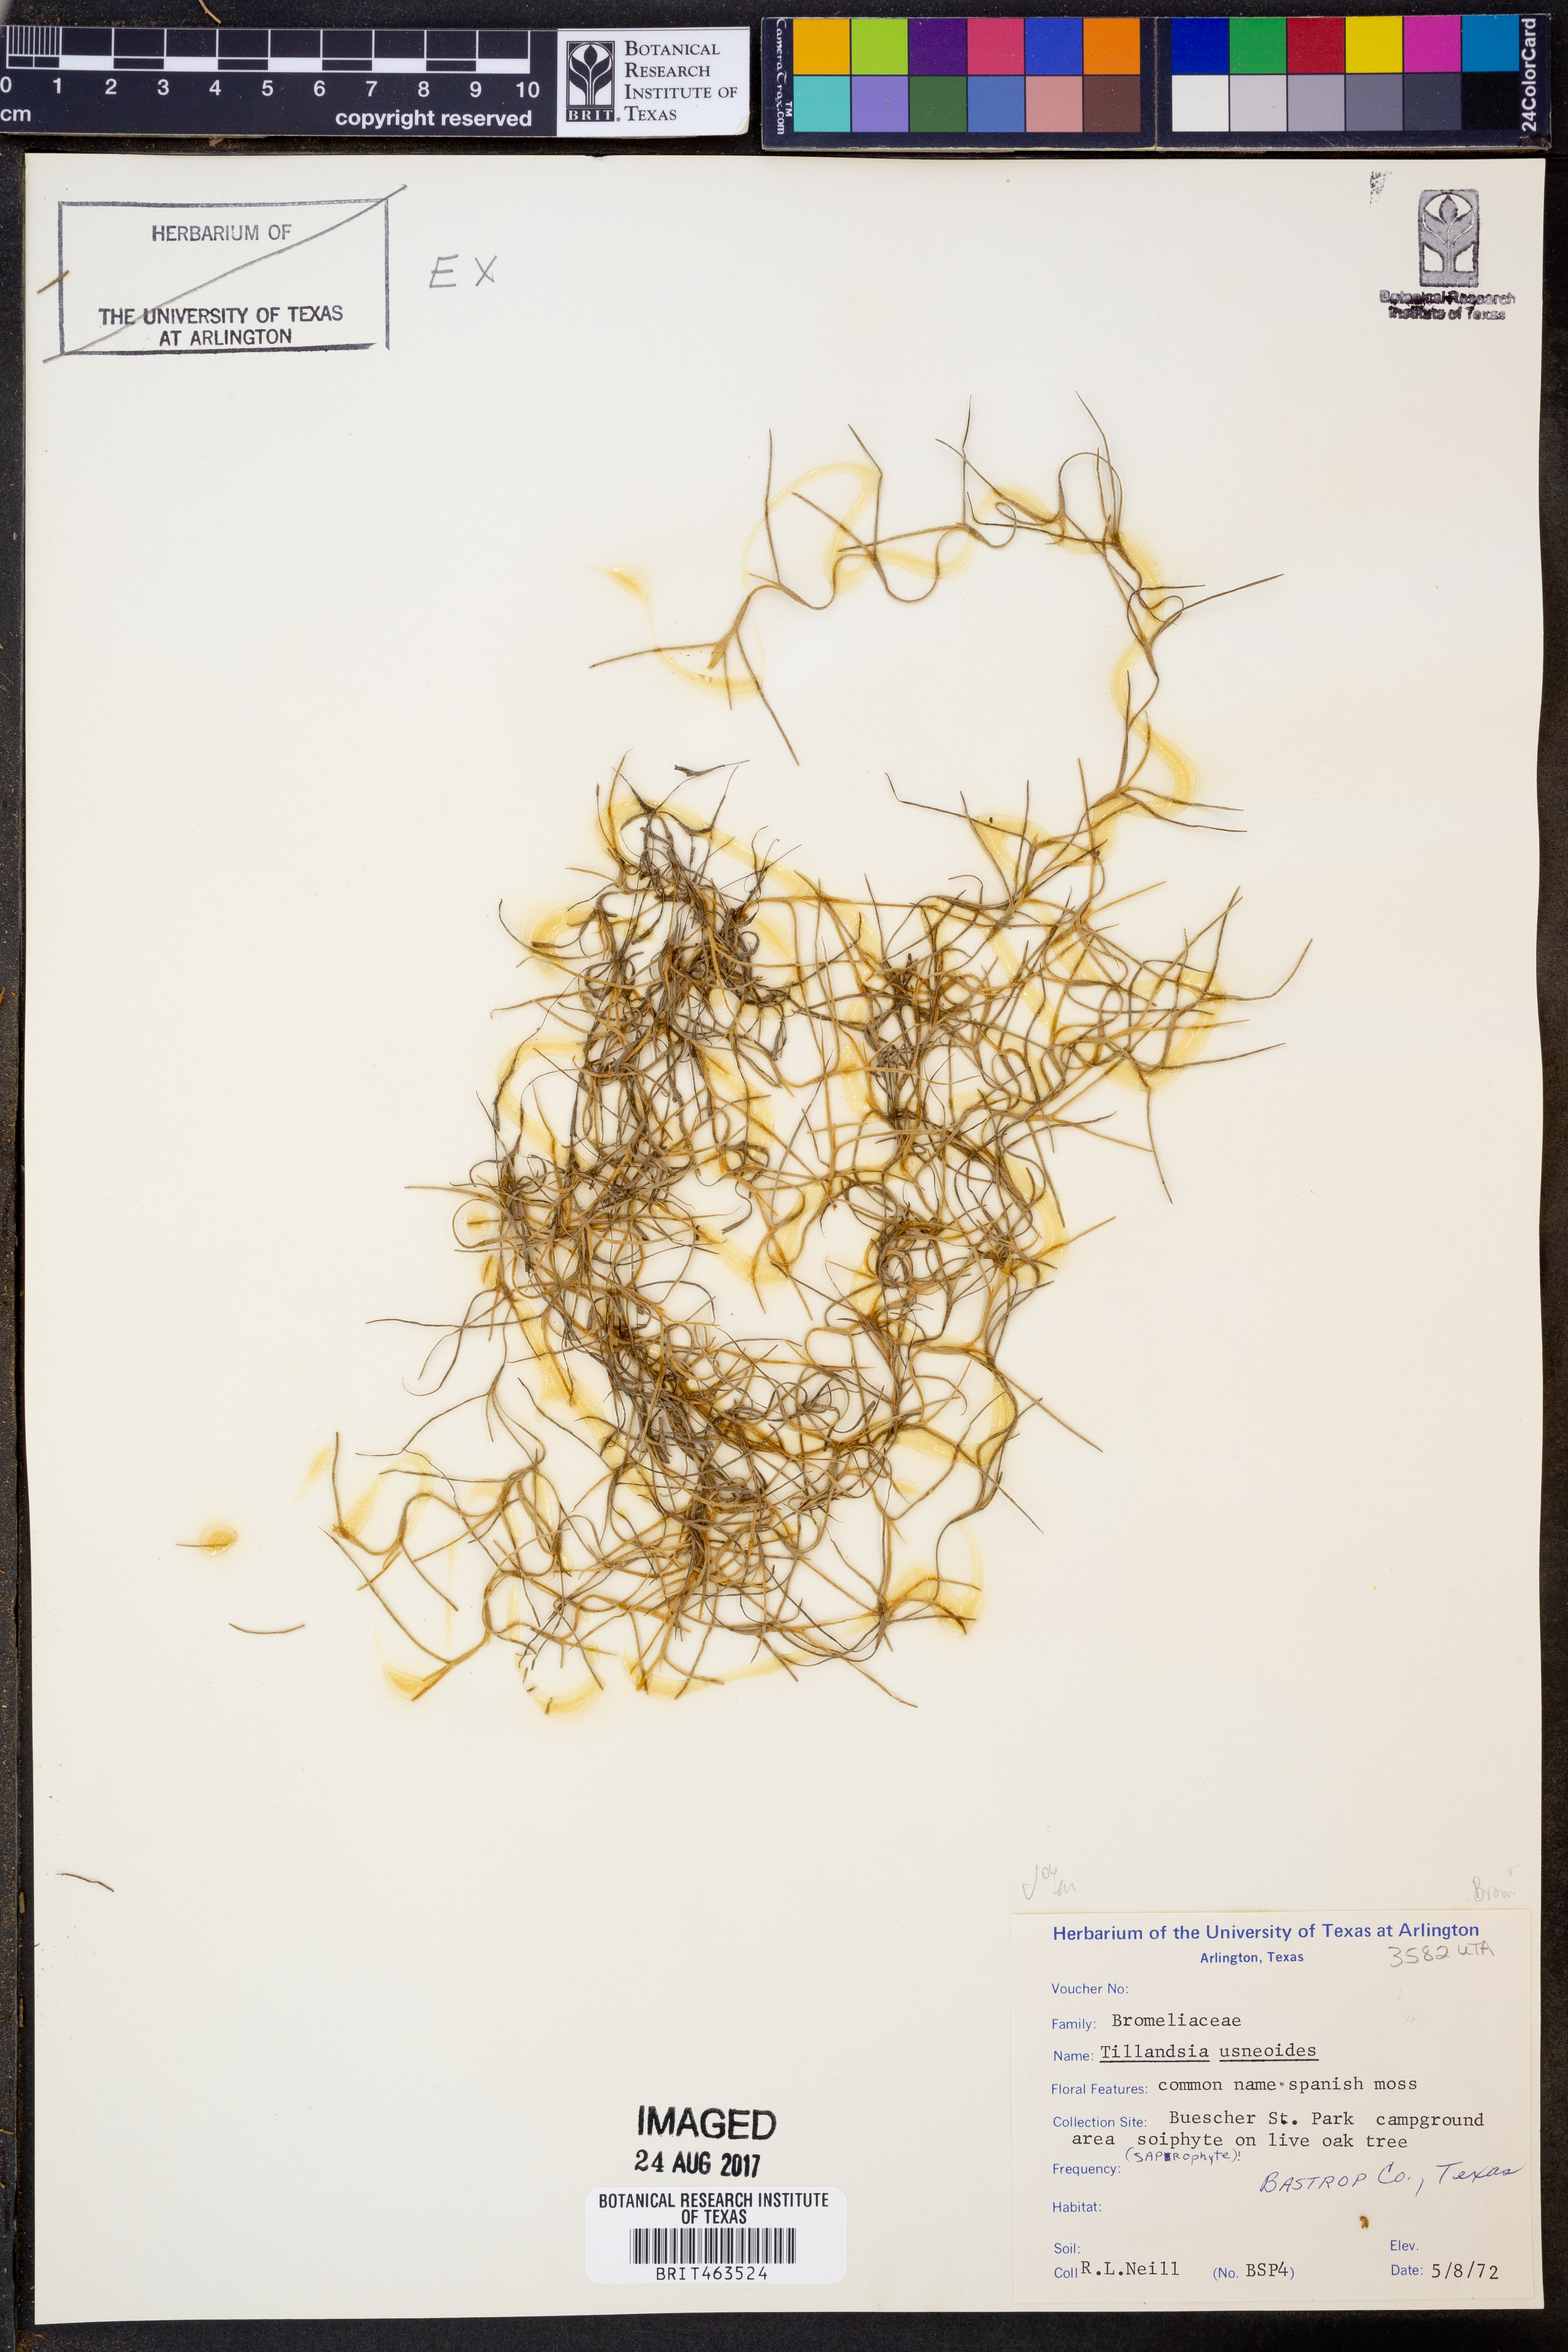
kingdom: Plantae
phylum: Tracheophyta
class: Liliopsida
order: Poales
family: Bromeliaceae
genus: Tillandsia
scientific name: Tillandsia usneoides
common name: Spanish moss
